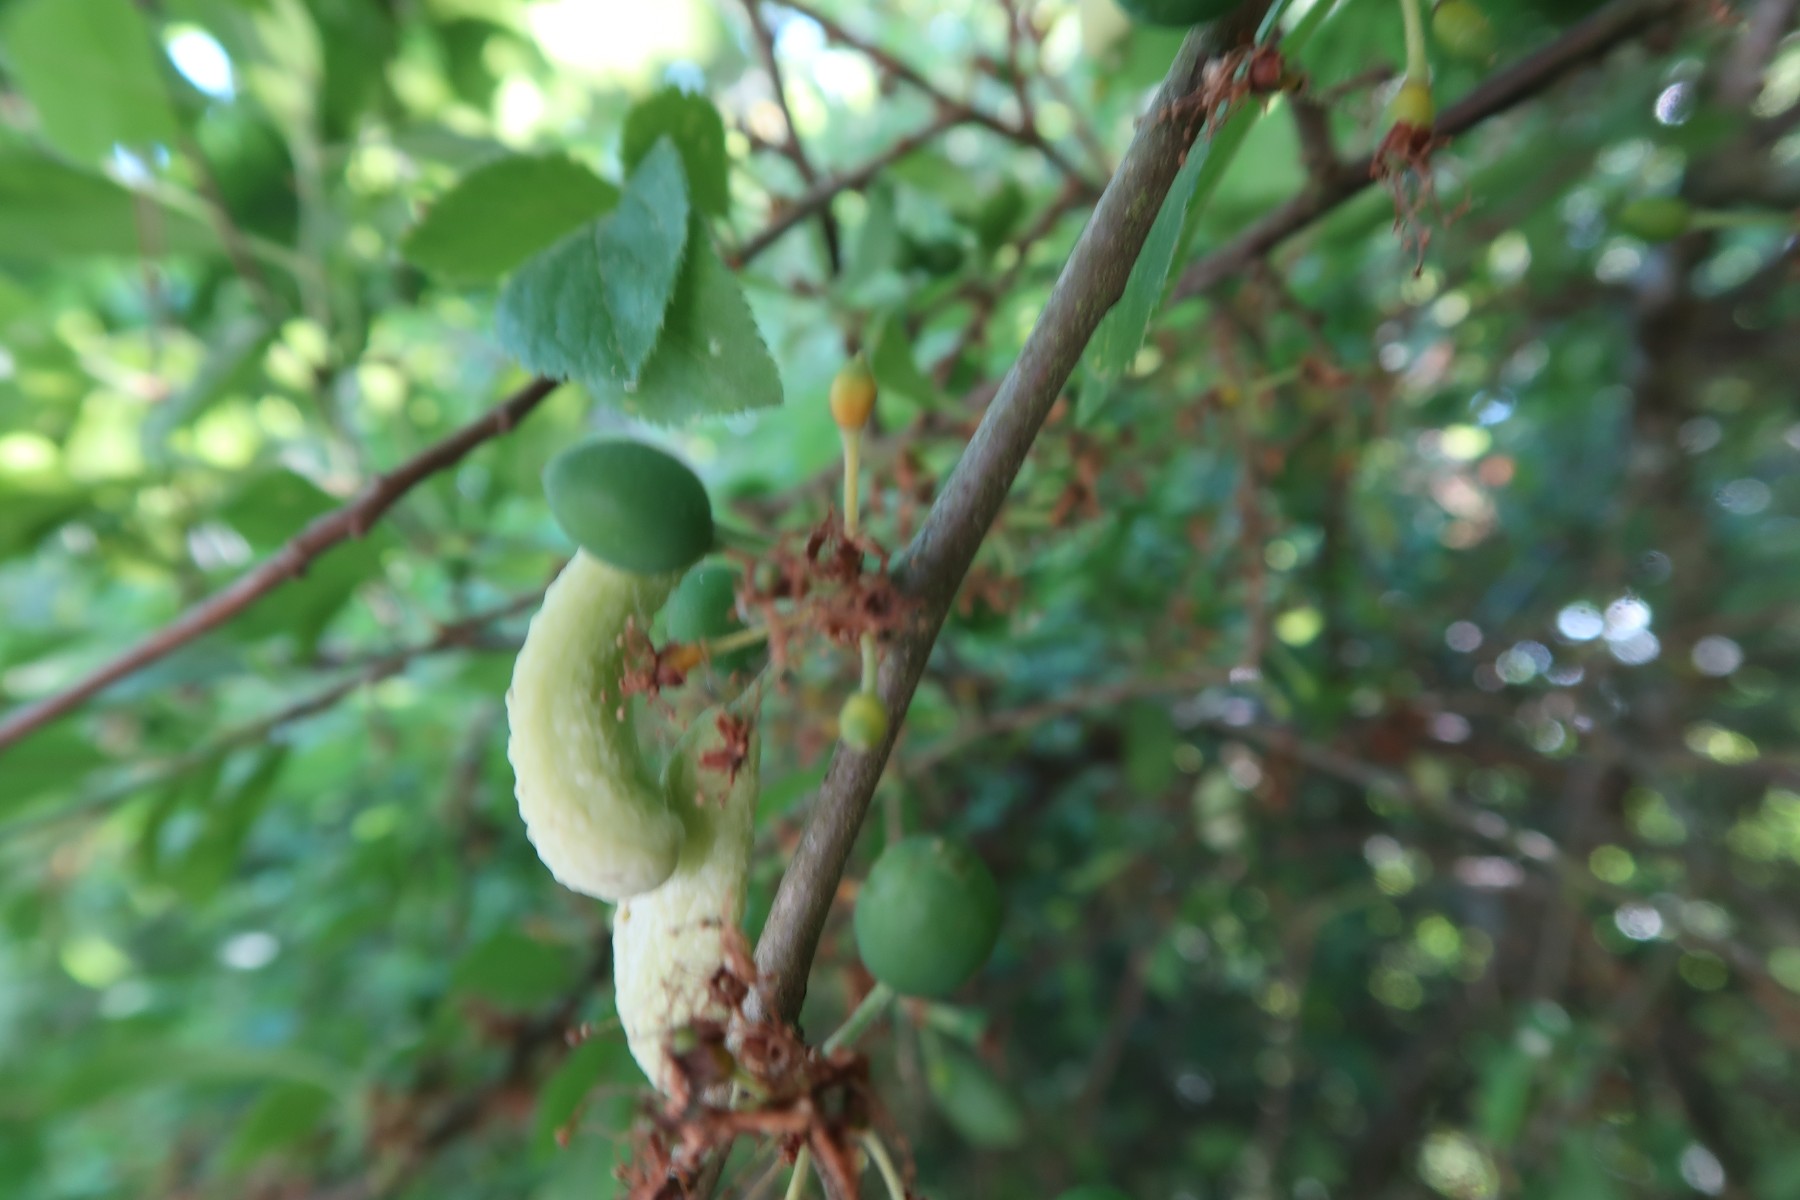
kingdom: Fungi
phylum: Ascomycota
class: Taphrinomycetes
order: Taphrinales
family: Taphrinaceae
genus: Taphrina
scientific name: Taphrina pruni
